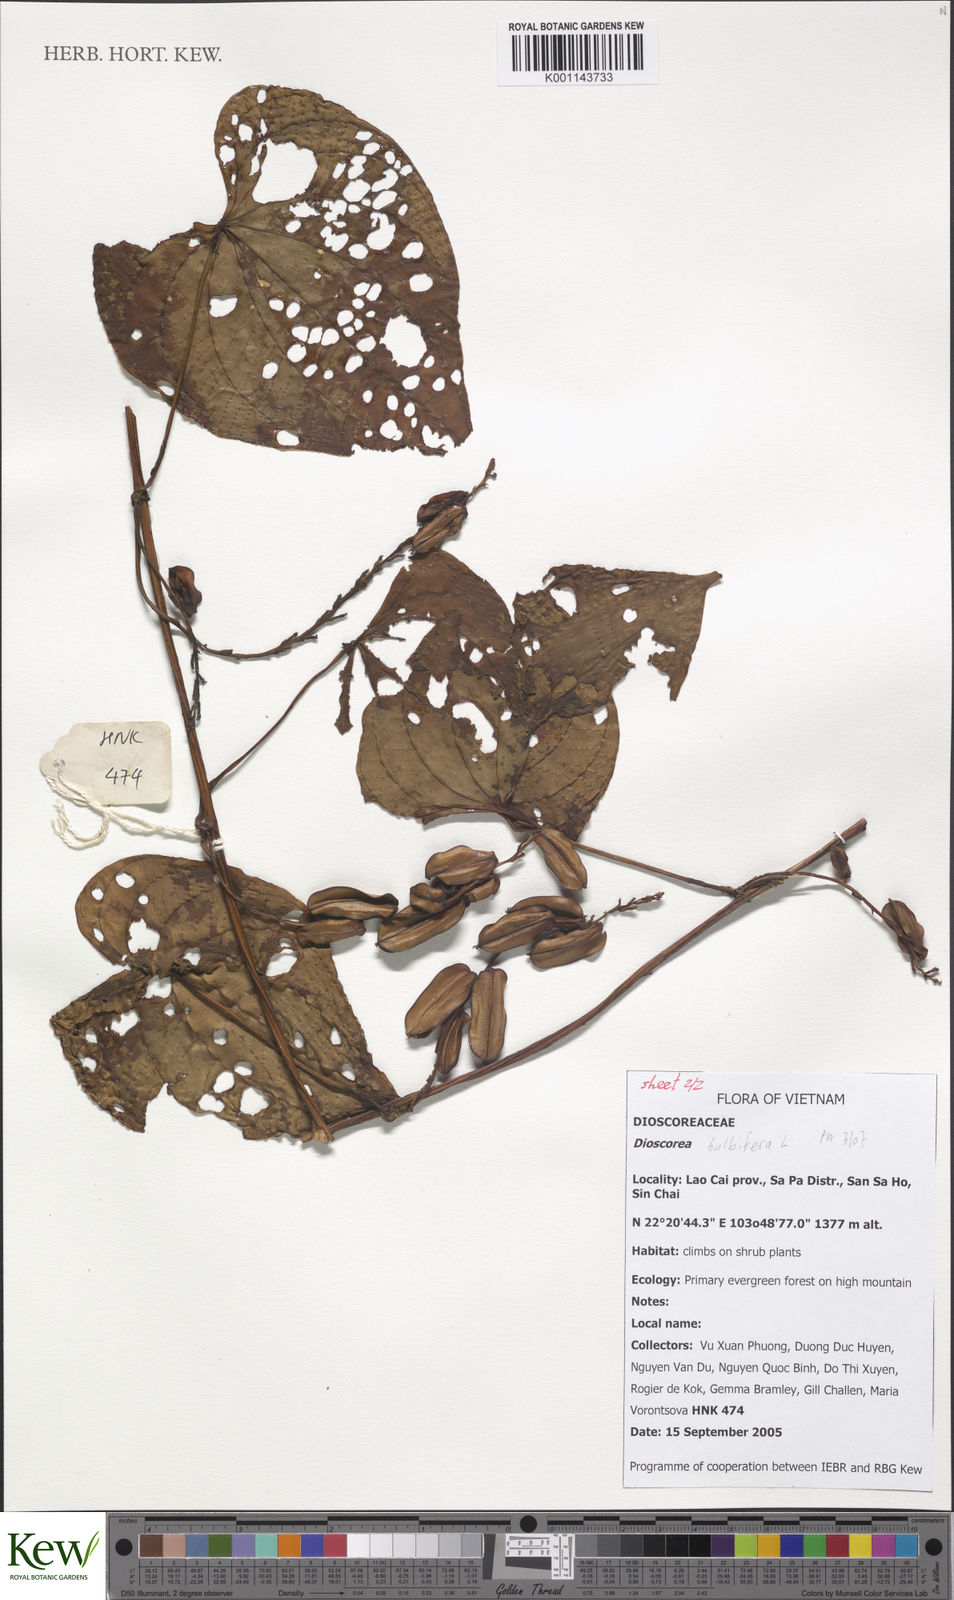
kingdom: Plantae
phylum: Tracheophyta
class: Liliopsida
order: Dioscoreales
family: Dioscoreaceae
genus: Dioscorea
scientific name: Dioscorea bulbifera
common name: Air yam
